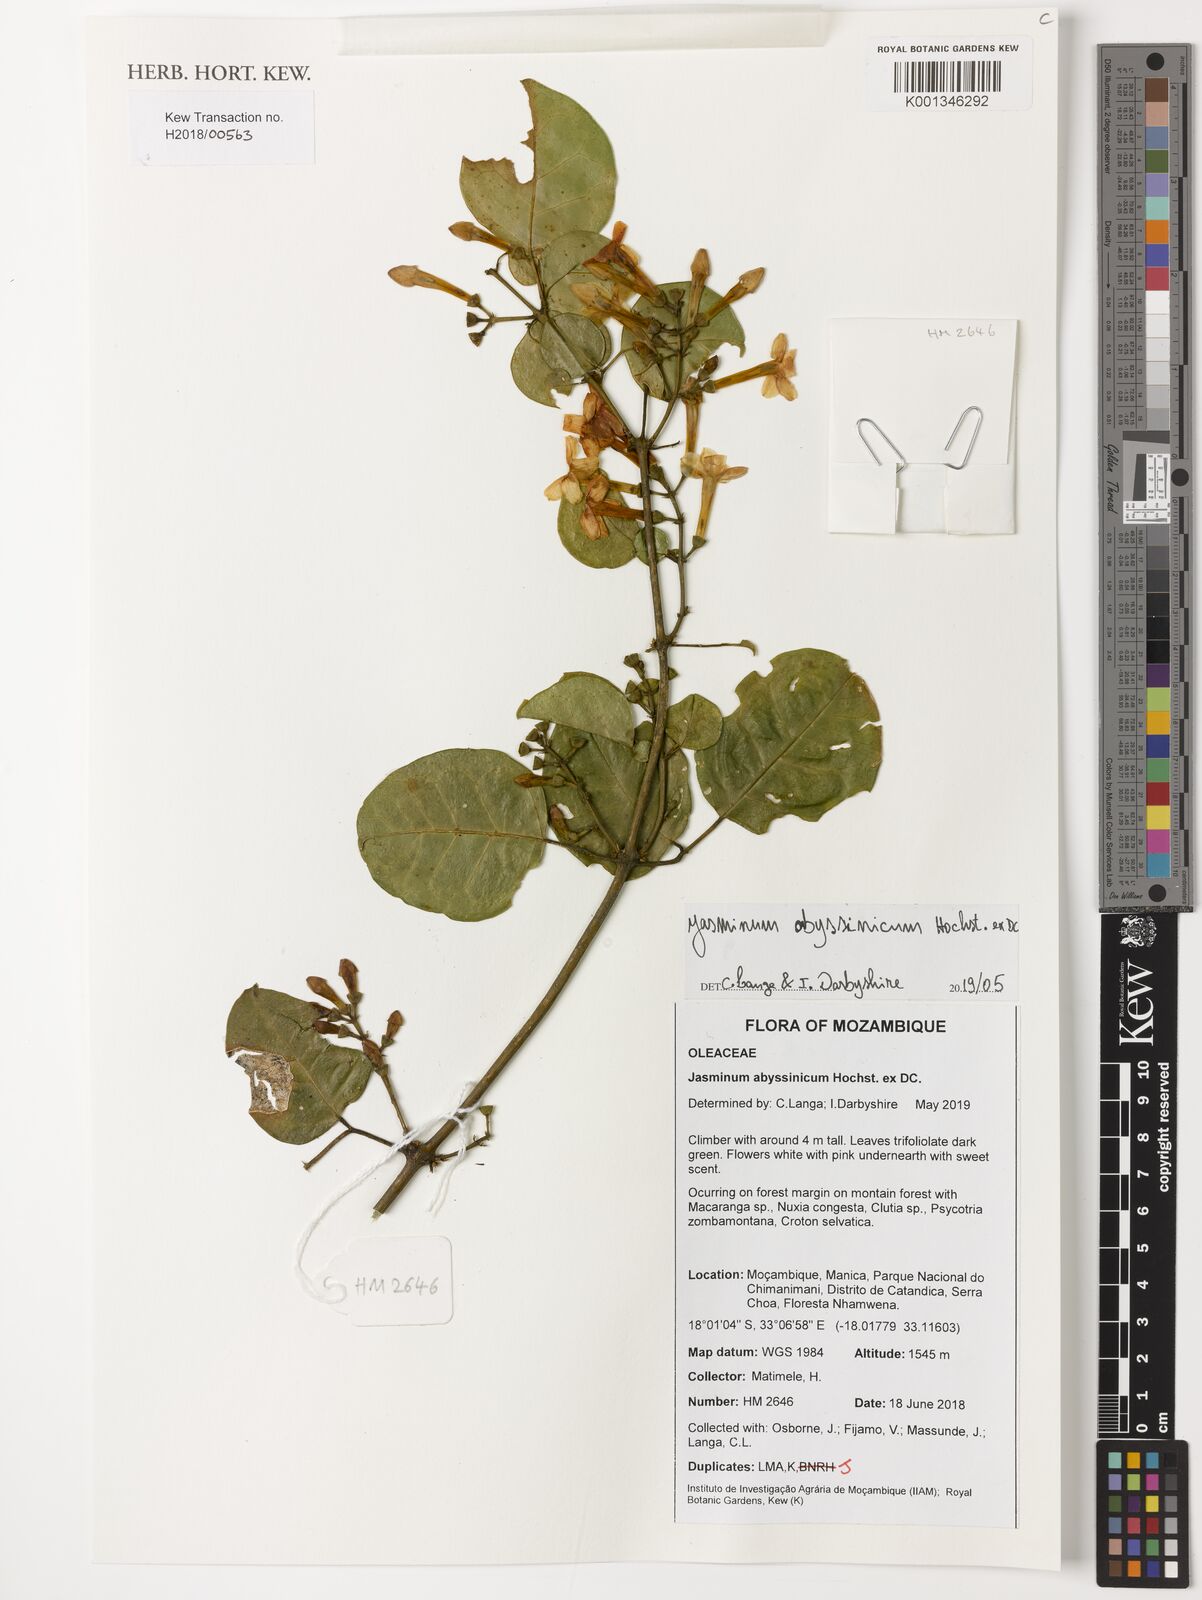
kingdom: Plantae
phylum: Tracheophyta
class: Magnoliopsida
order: Lamiales
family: Oleaceae
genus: Jasminum
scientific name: Jasminum abyssinicum
